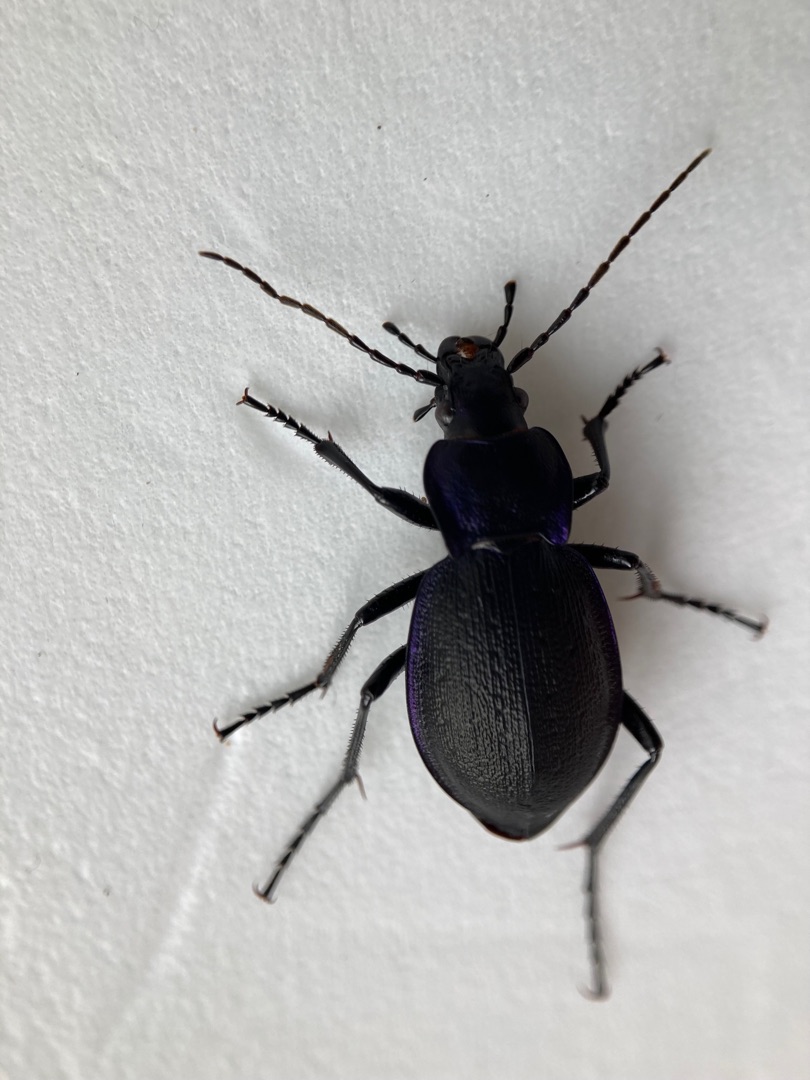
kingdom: Animalia
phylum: Arthropoda
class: Insecta
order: Coleoptera
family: Carabidae
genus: Carabus
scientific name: Carabus problematicus
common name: Jysk løber
